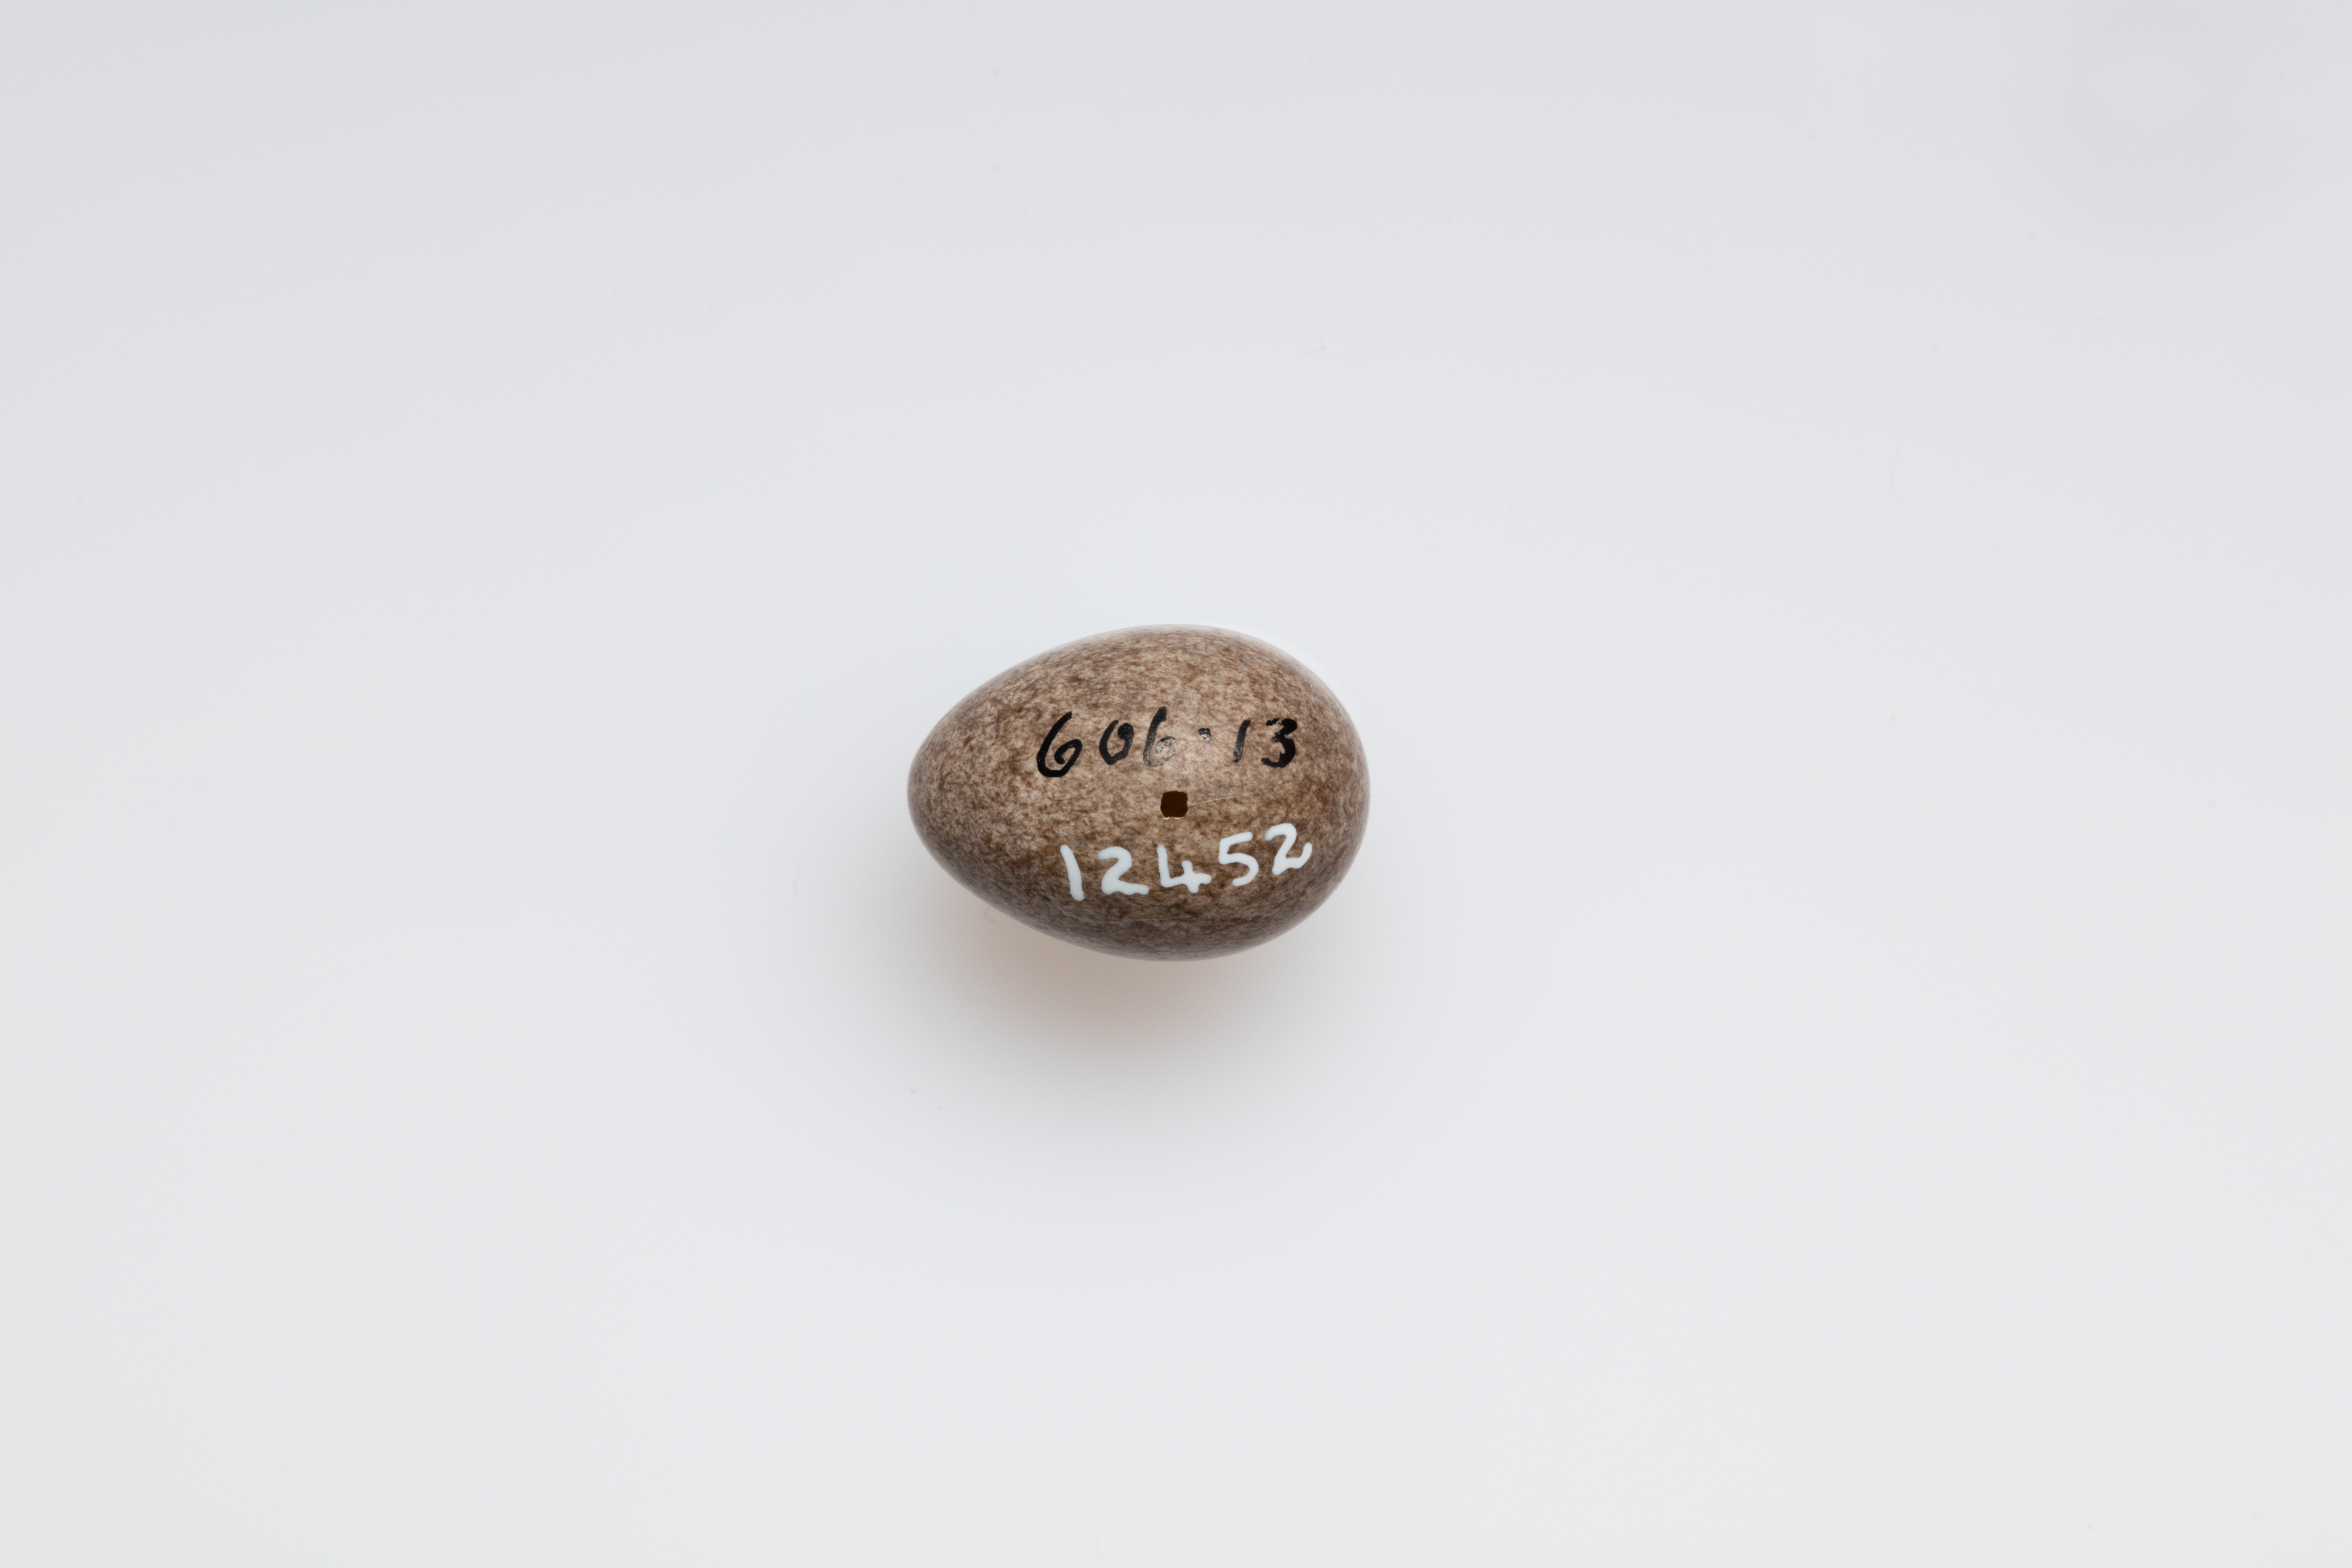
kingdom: Animalia
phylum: Chordata
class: Aves
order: Passeriformes
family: Motacillidae
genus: Anthus
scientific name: Anthus pratensis
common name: Meadow pipit
